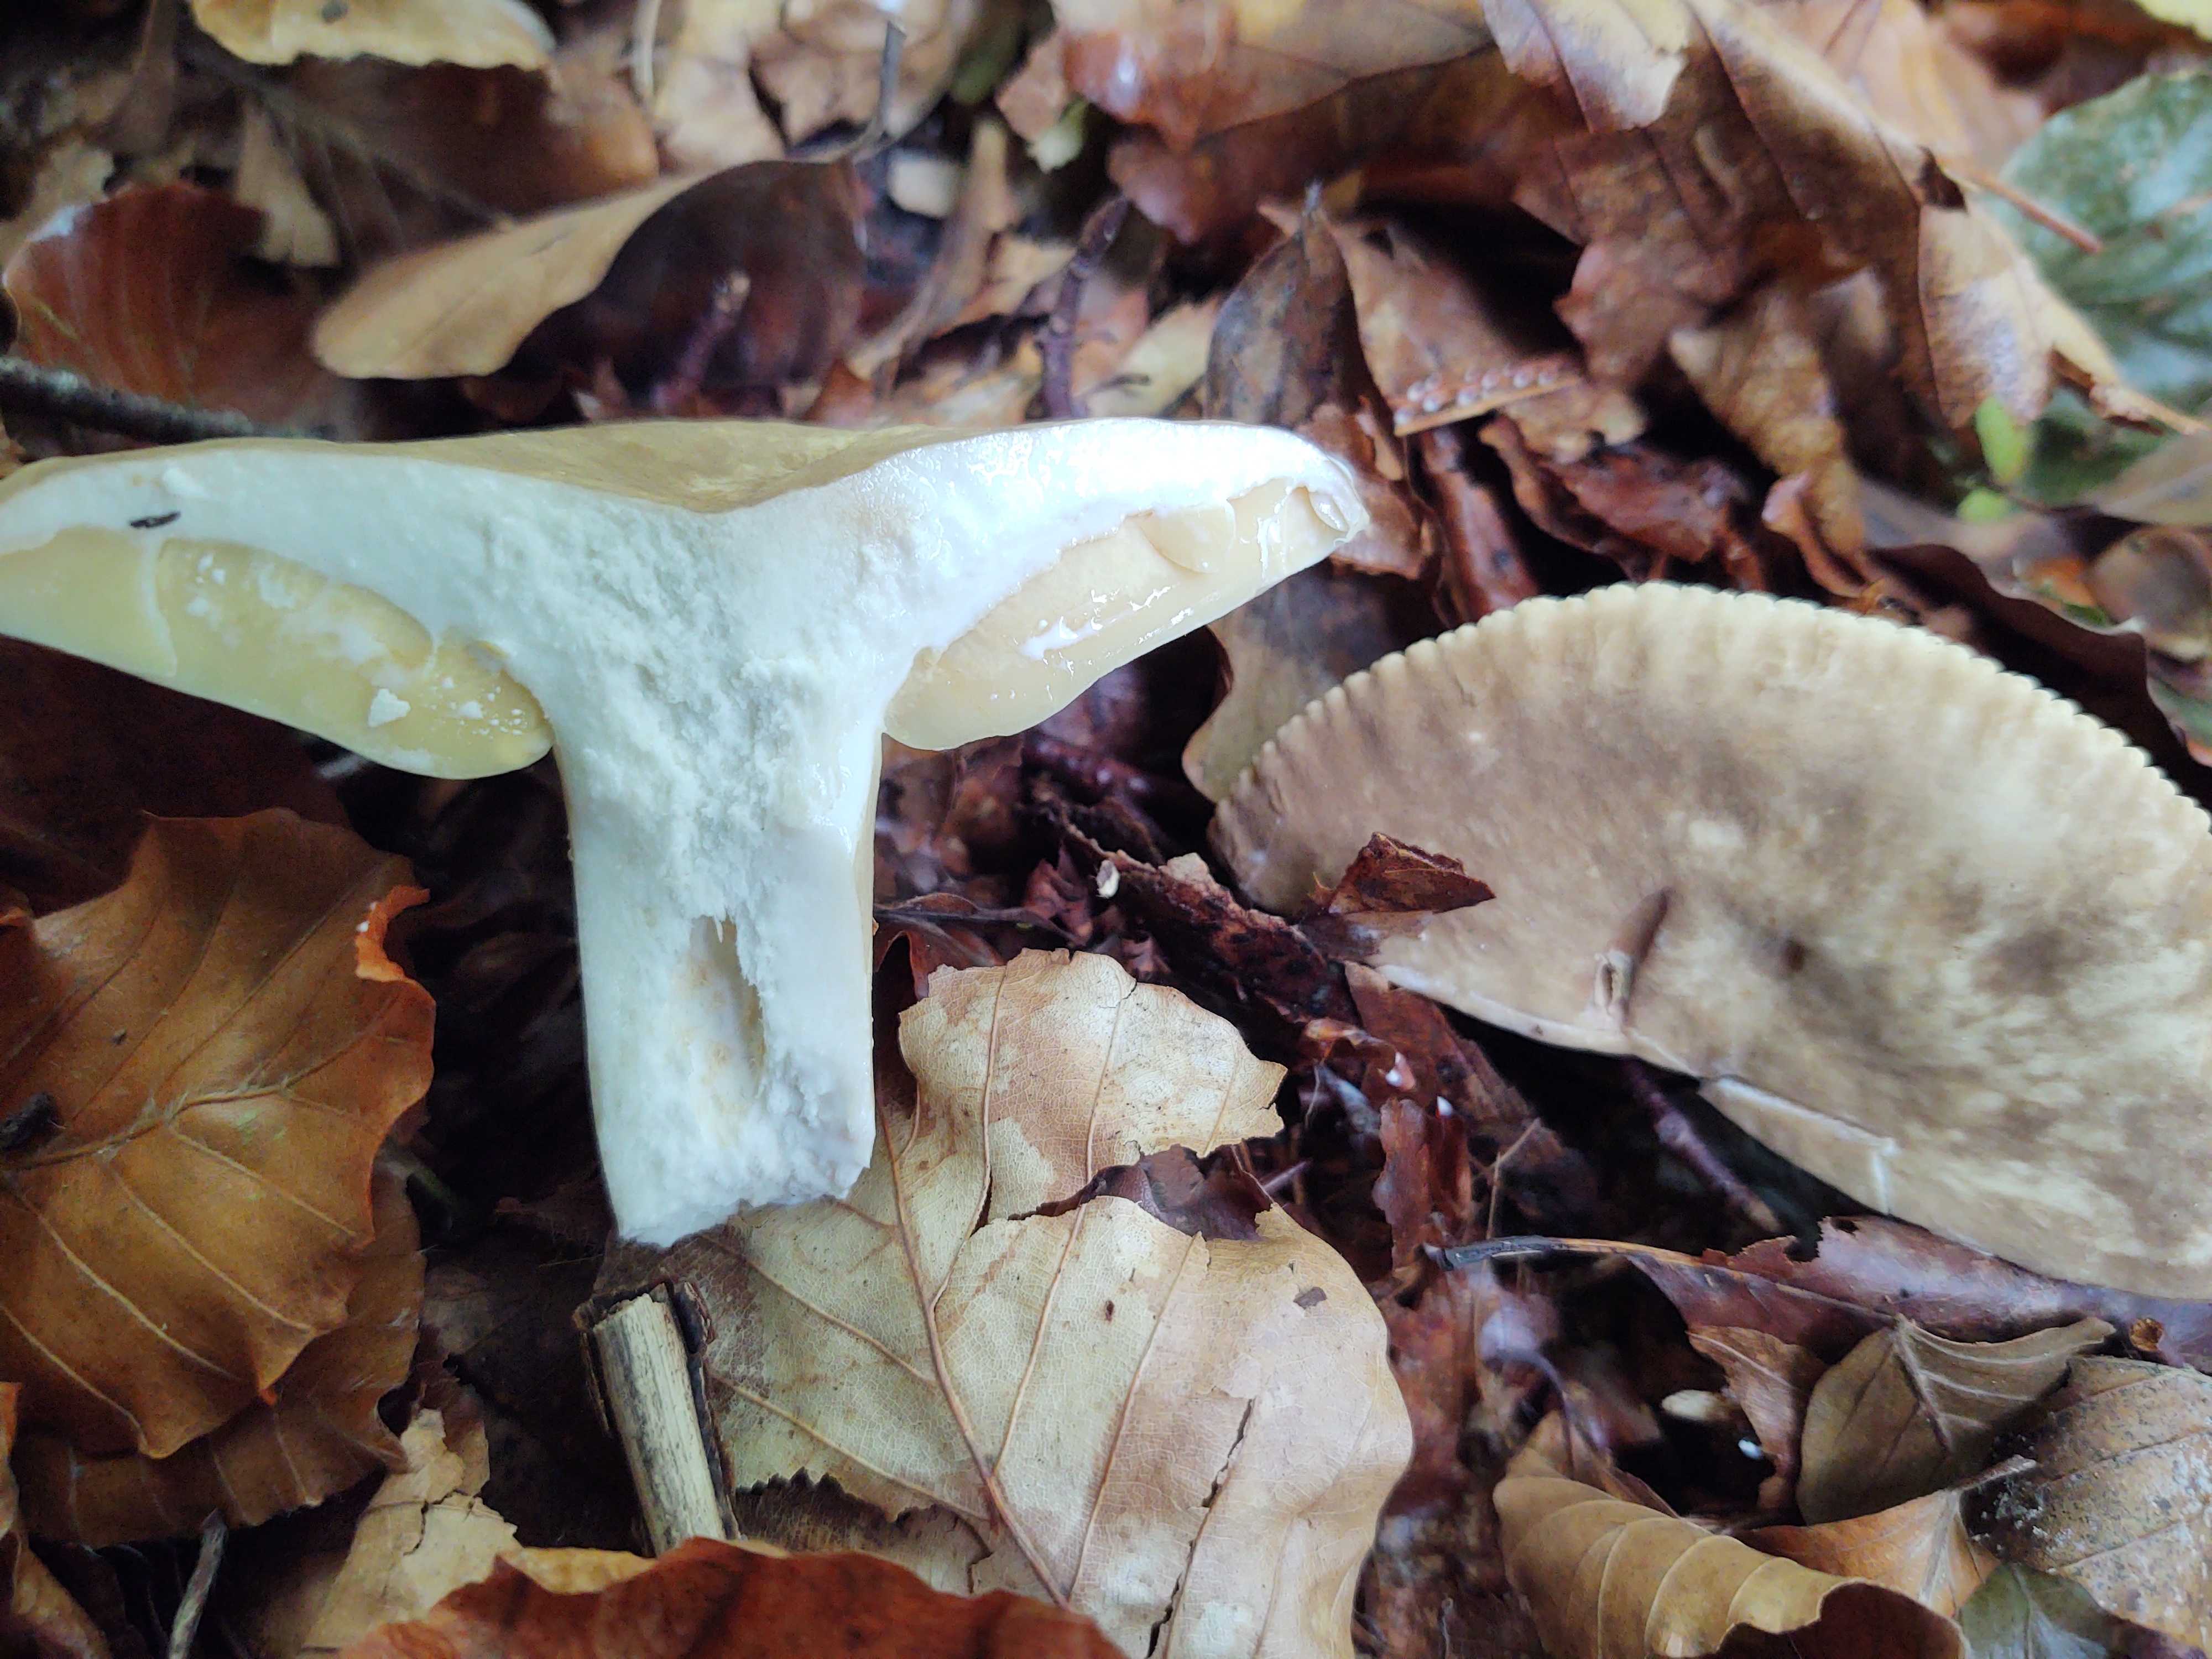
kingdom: Fungi
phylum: Basidiomycota
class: Agaricomycetes
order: Russulales
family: Russulaceae
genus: Lactarius
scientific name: Lactarius pterosporus
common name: vingesporet mælkehat
